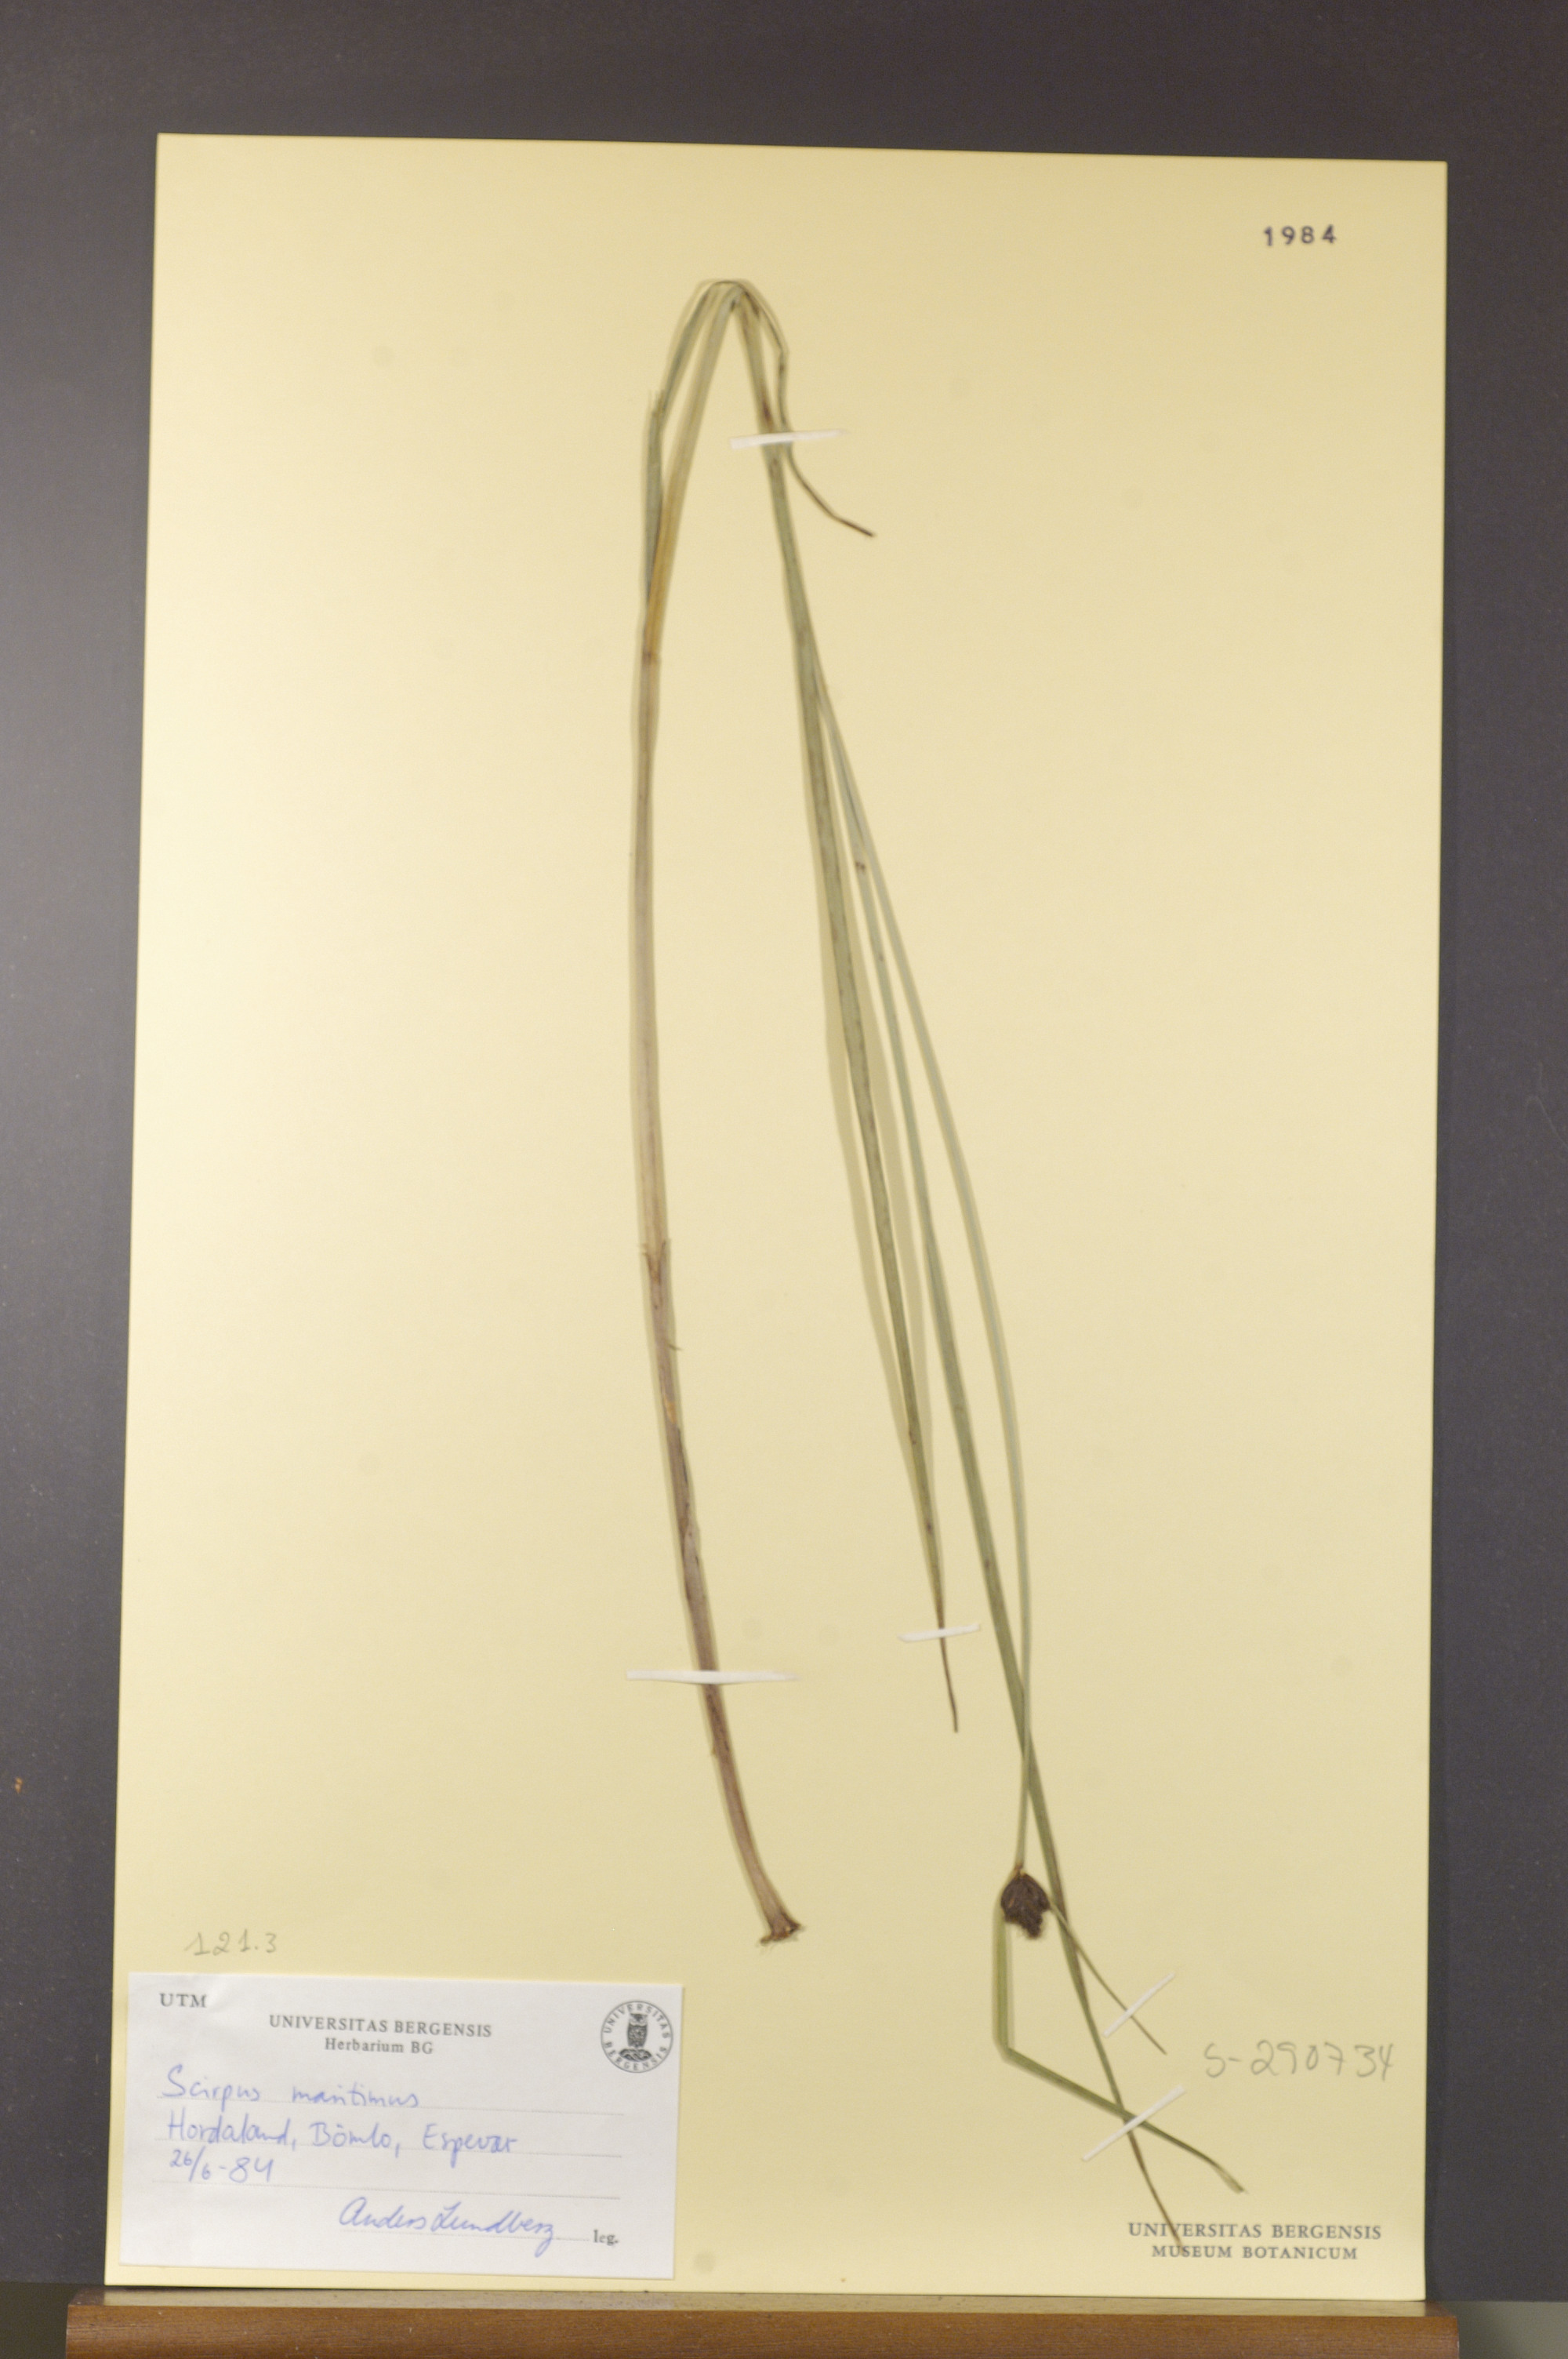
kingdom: Plantae
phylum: Tracheophyta
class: Liliopsida
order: Poales
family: Cyperaceae
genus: Bolboschoenus
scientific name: Bolboschoenus maritimus
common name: Sea club-rush
